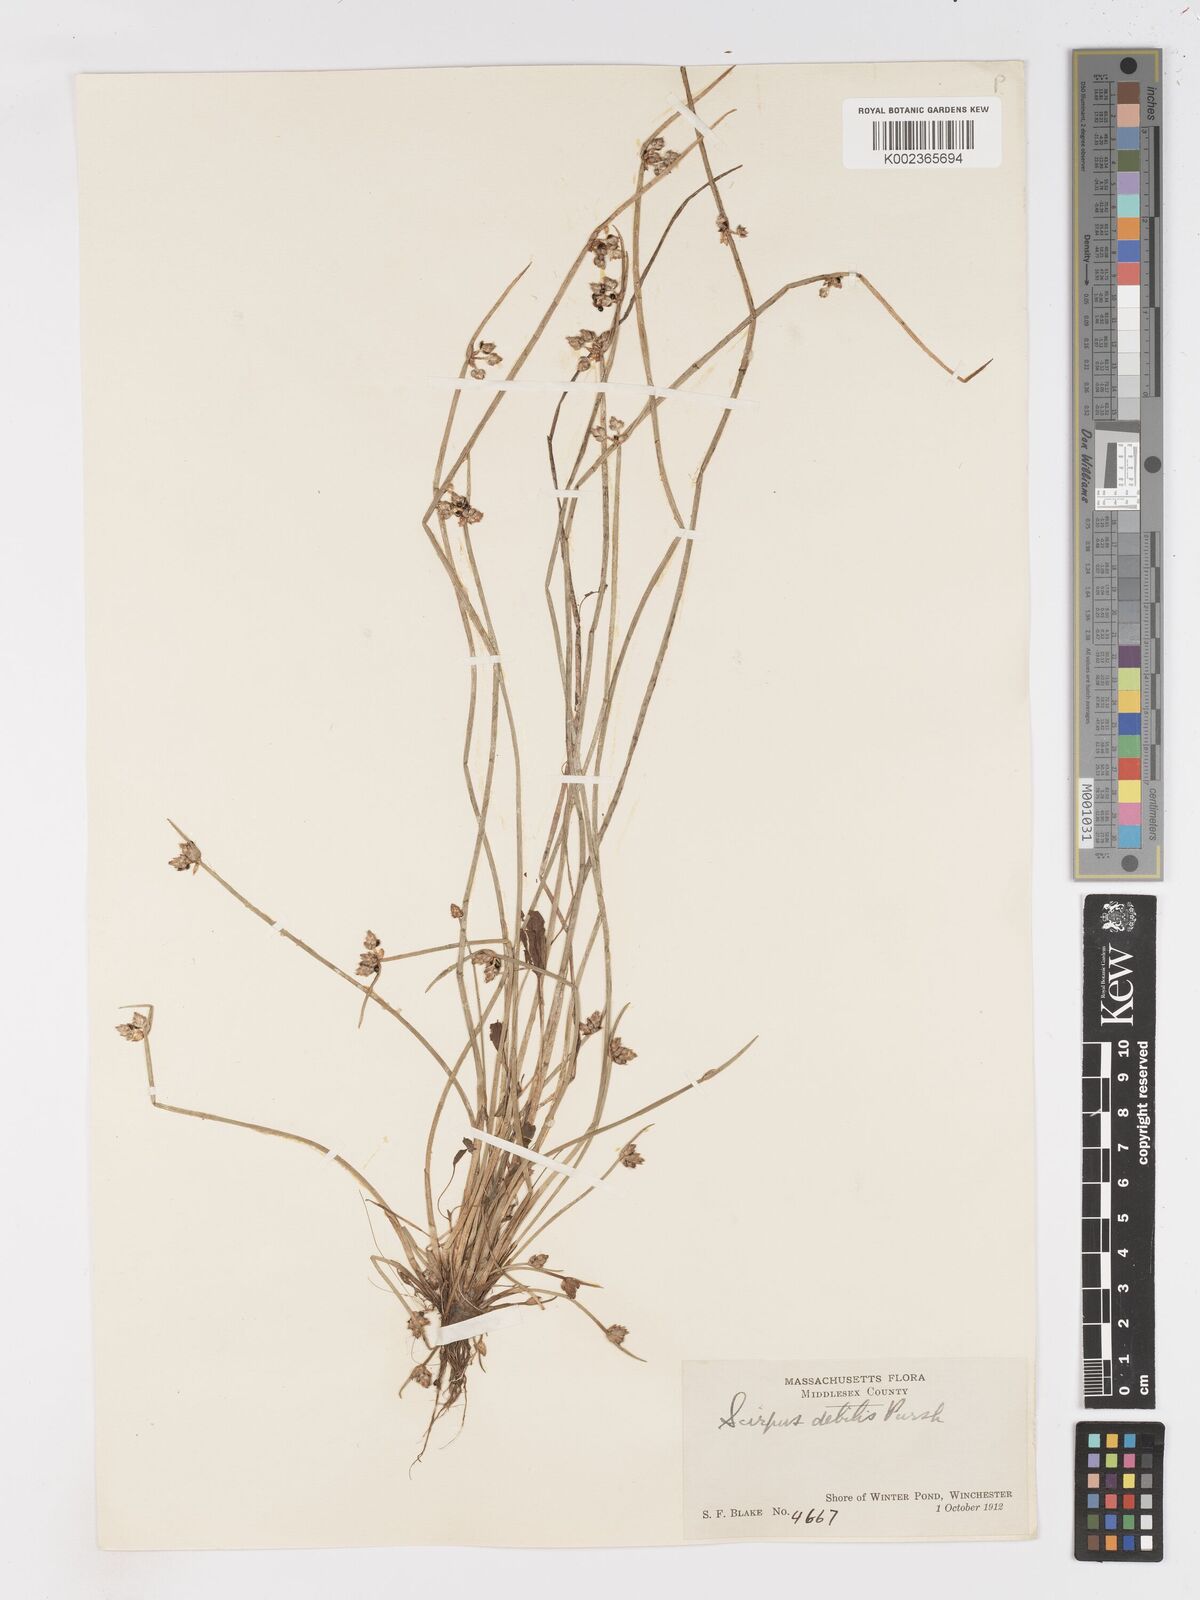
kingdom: Plantae
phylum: Tracheophyta
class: Liliopsida
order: Poales
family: Cyperaceae
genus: Schoenoplectiella
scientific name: Schoenoplectiella purshiana
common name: Weak-stalked bulrush
